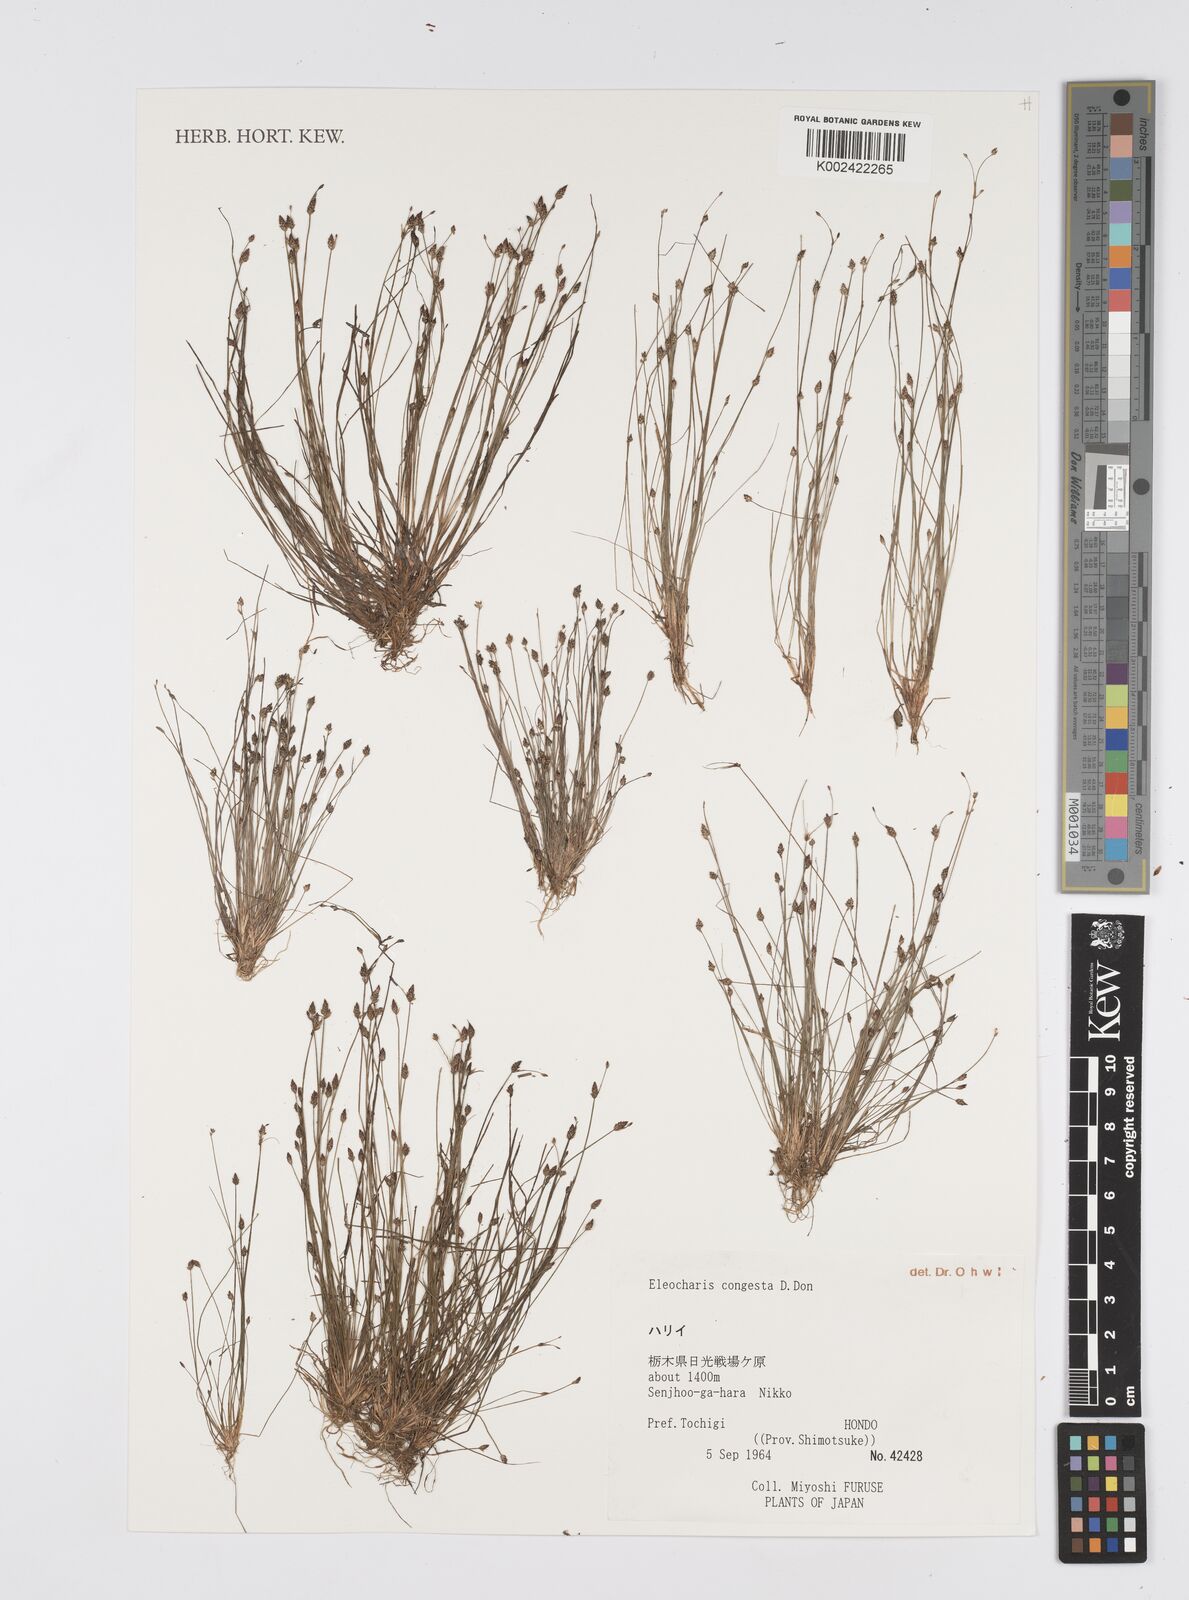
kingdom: Plantae
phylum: Tracheophyta
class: Liliopsida
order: Poales
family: Cyperaceae
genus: Eleocharis
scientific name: Eleocharis congesta
